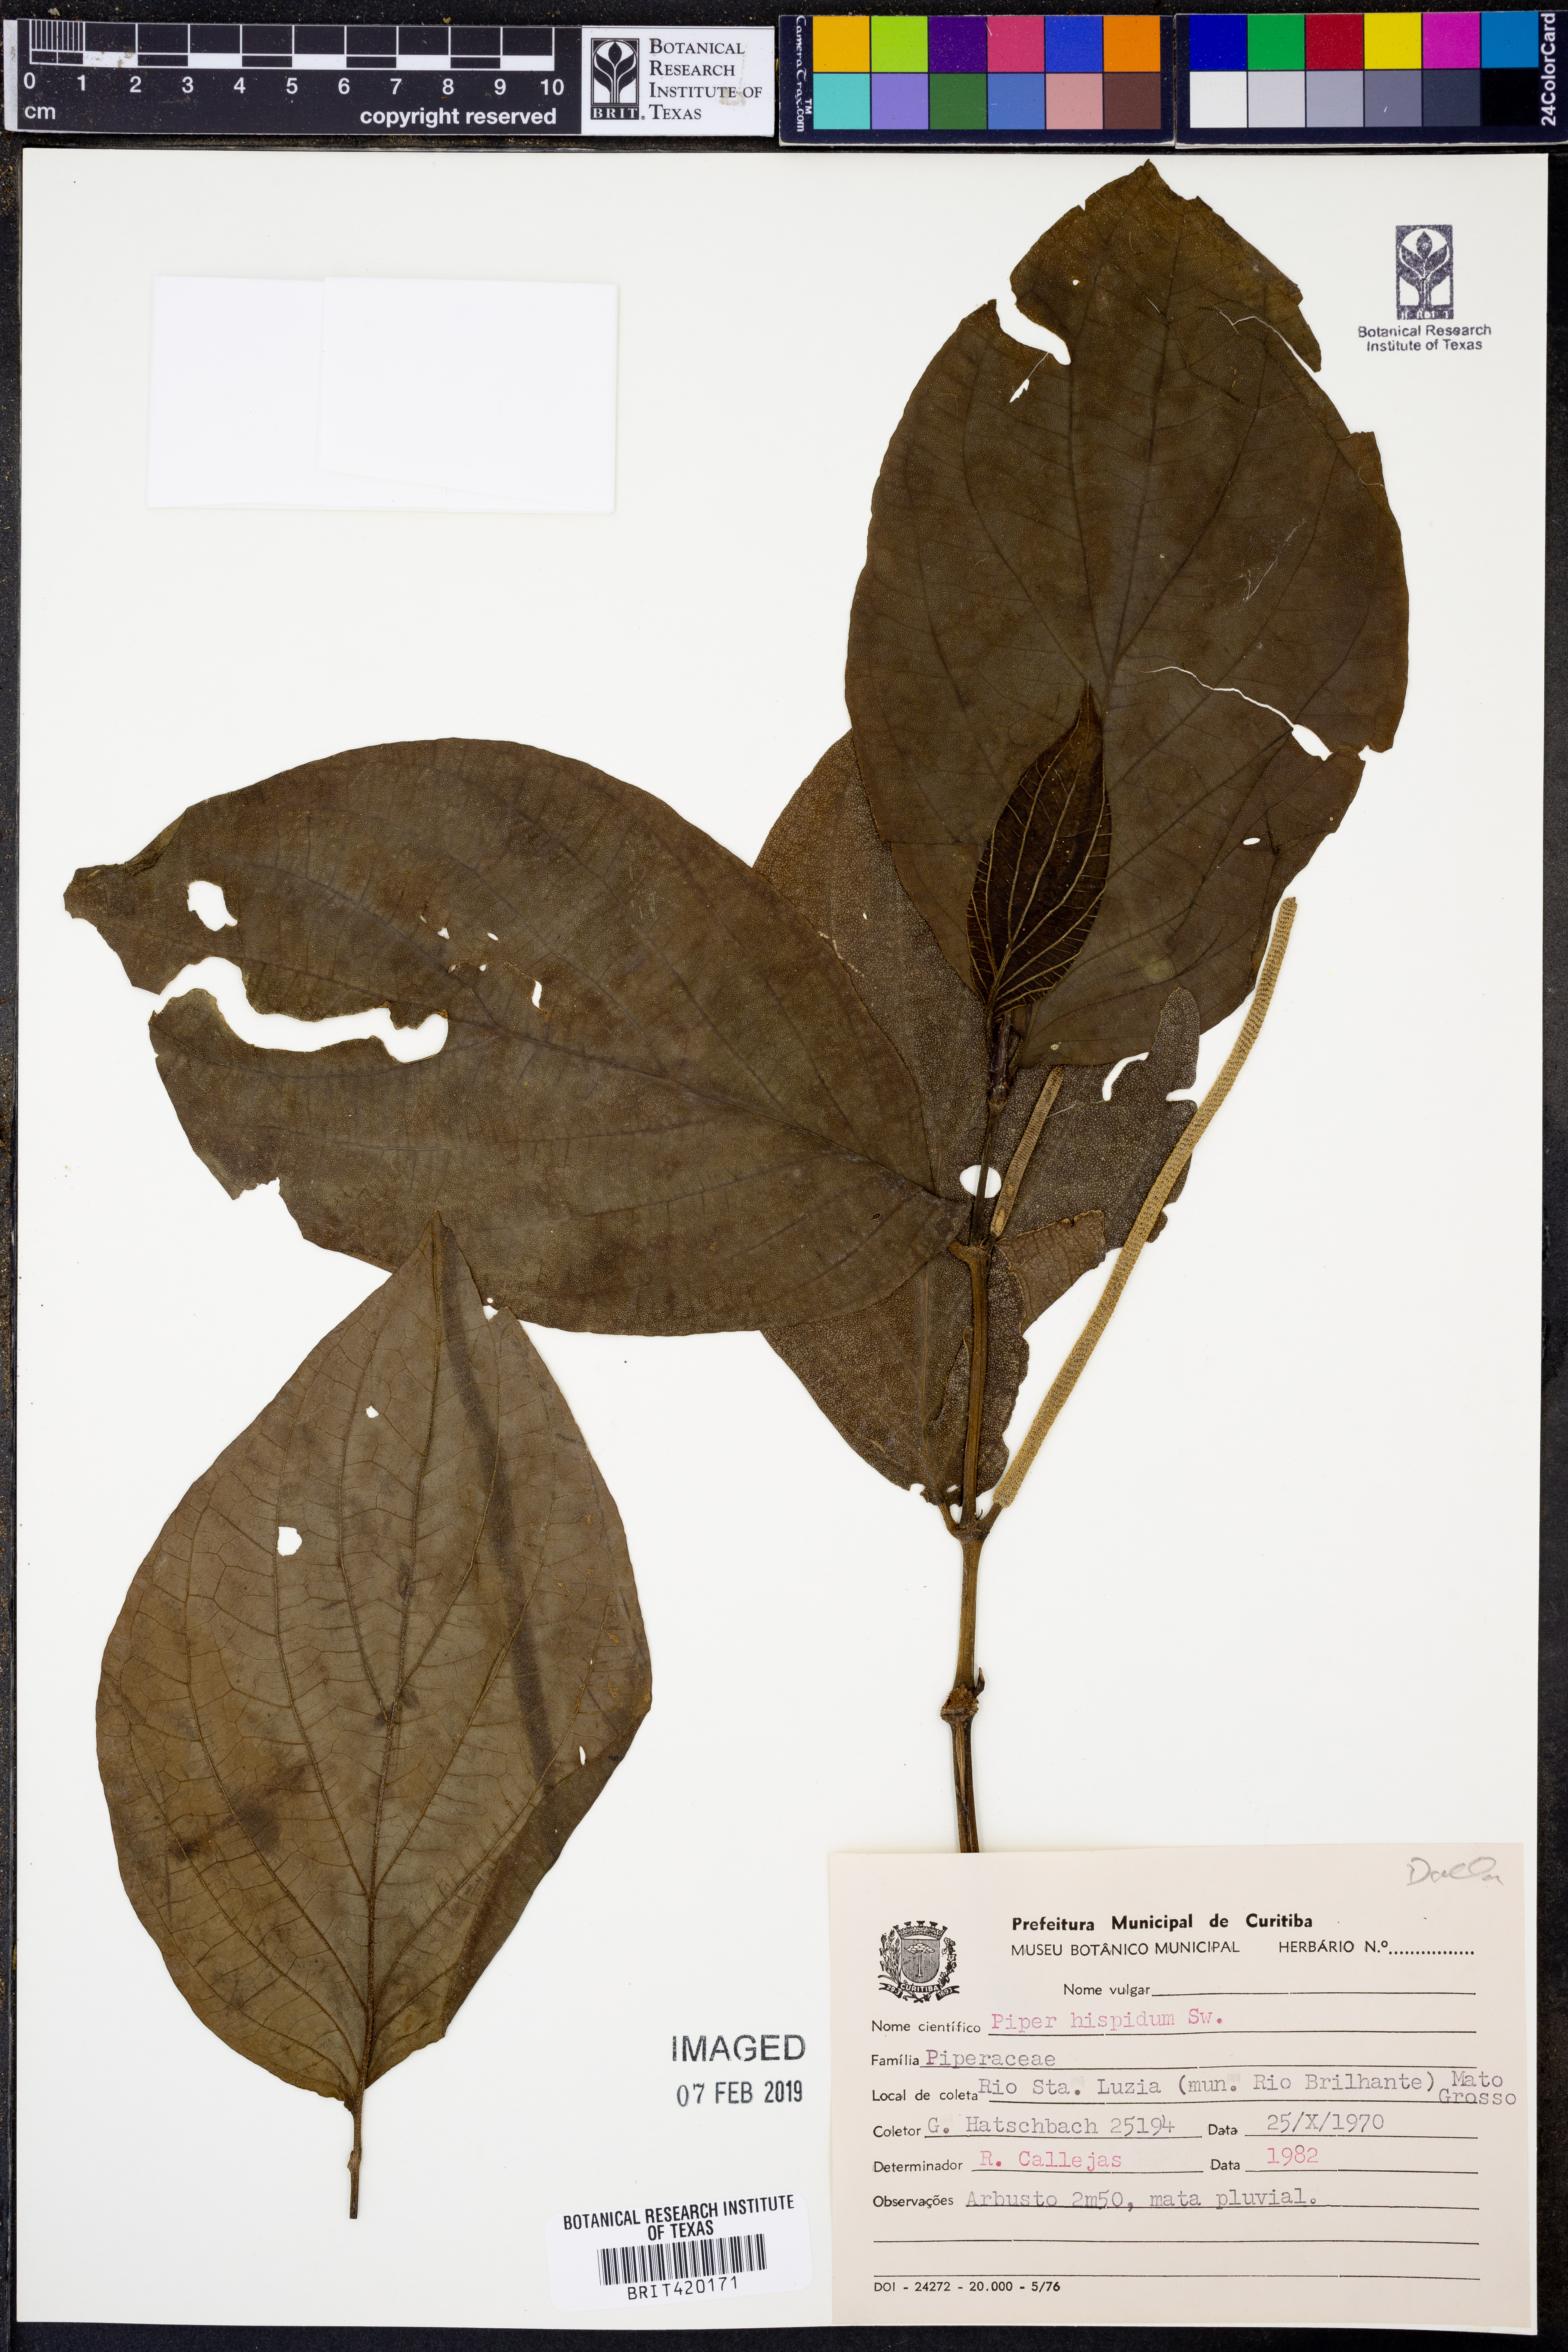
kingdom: Plantae
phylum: Tracheophyta
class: Magnoliopsida
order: Piperales
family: Piperaceae
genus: Piper
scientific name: Piper hispidum
